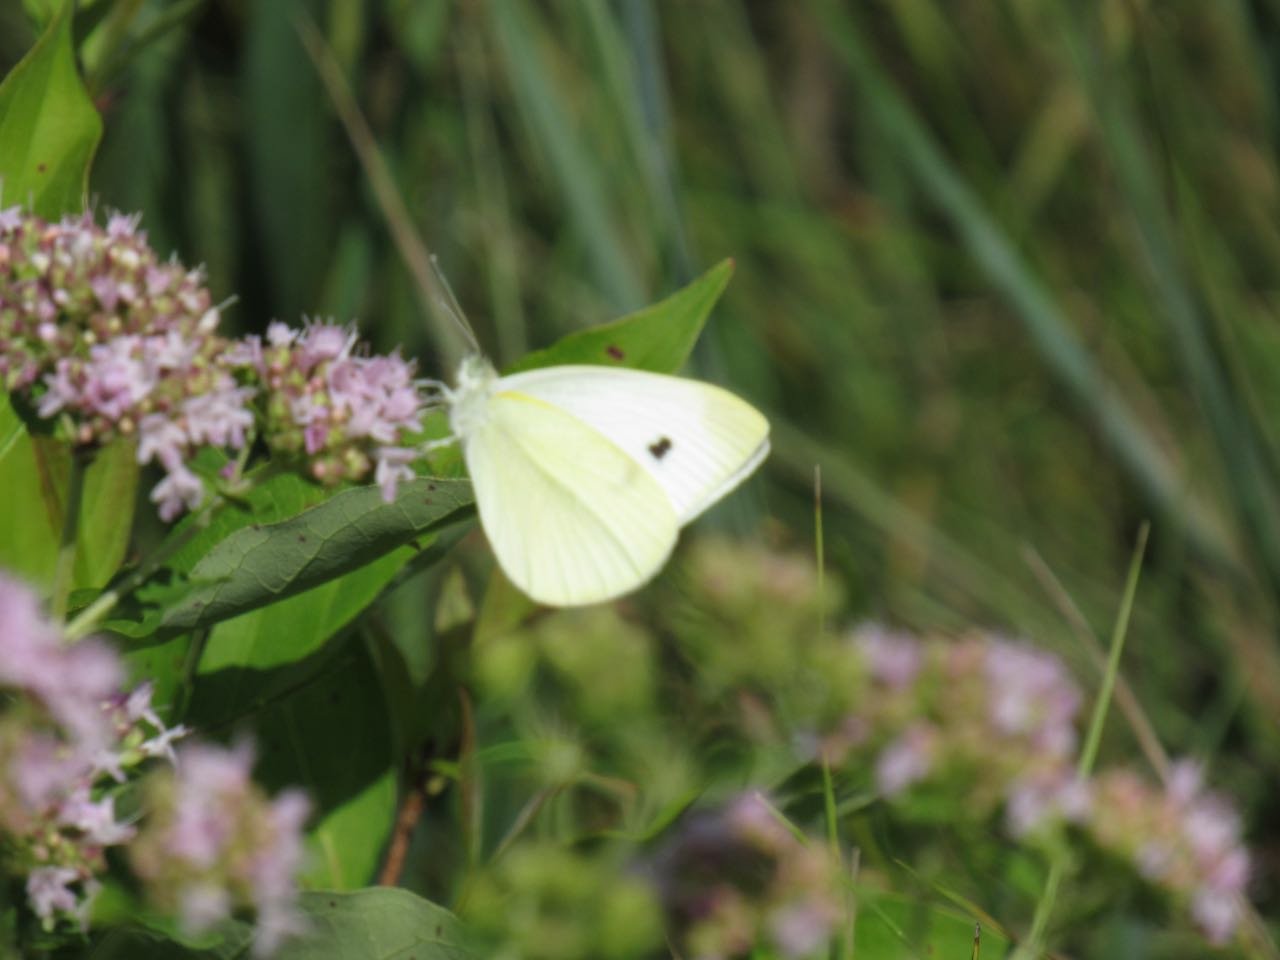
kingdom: Animalia
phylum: Arthropoda
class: Insecta
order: Lepidoptera
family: Pieridae
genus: Pieris
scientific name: Pieris rapae
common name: Cabbage White
